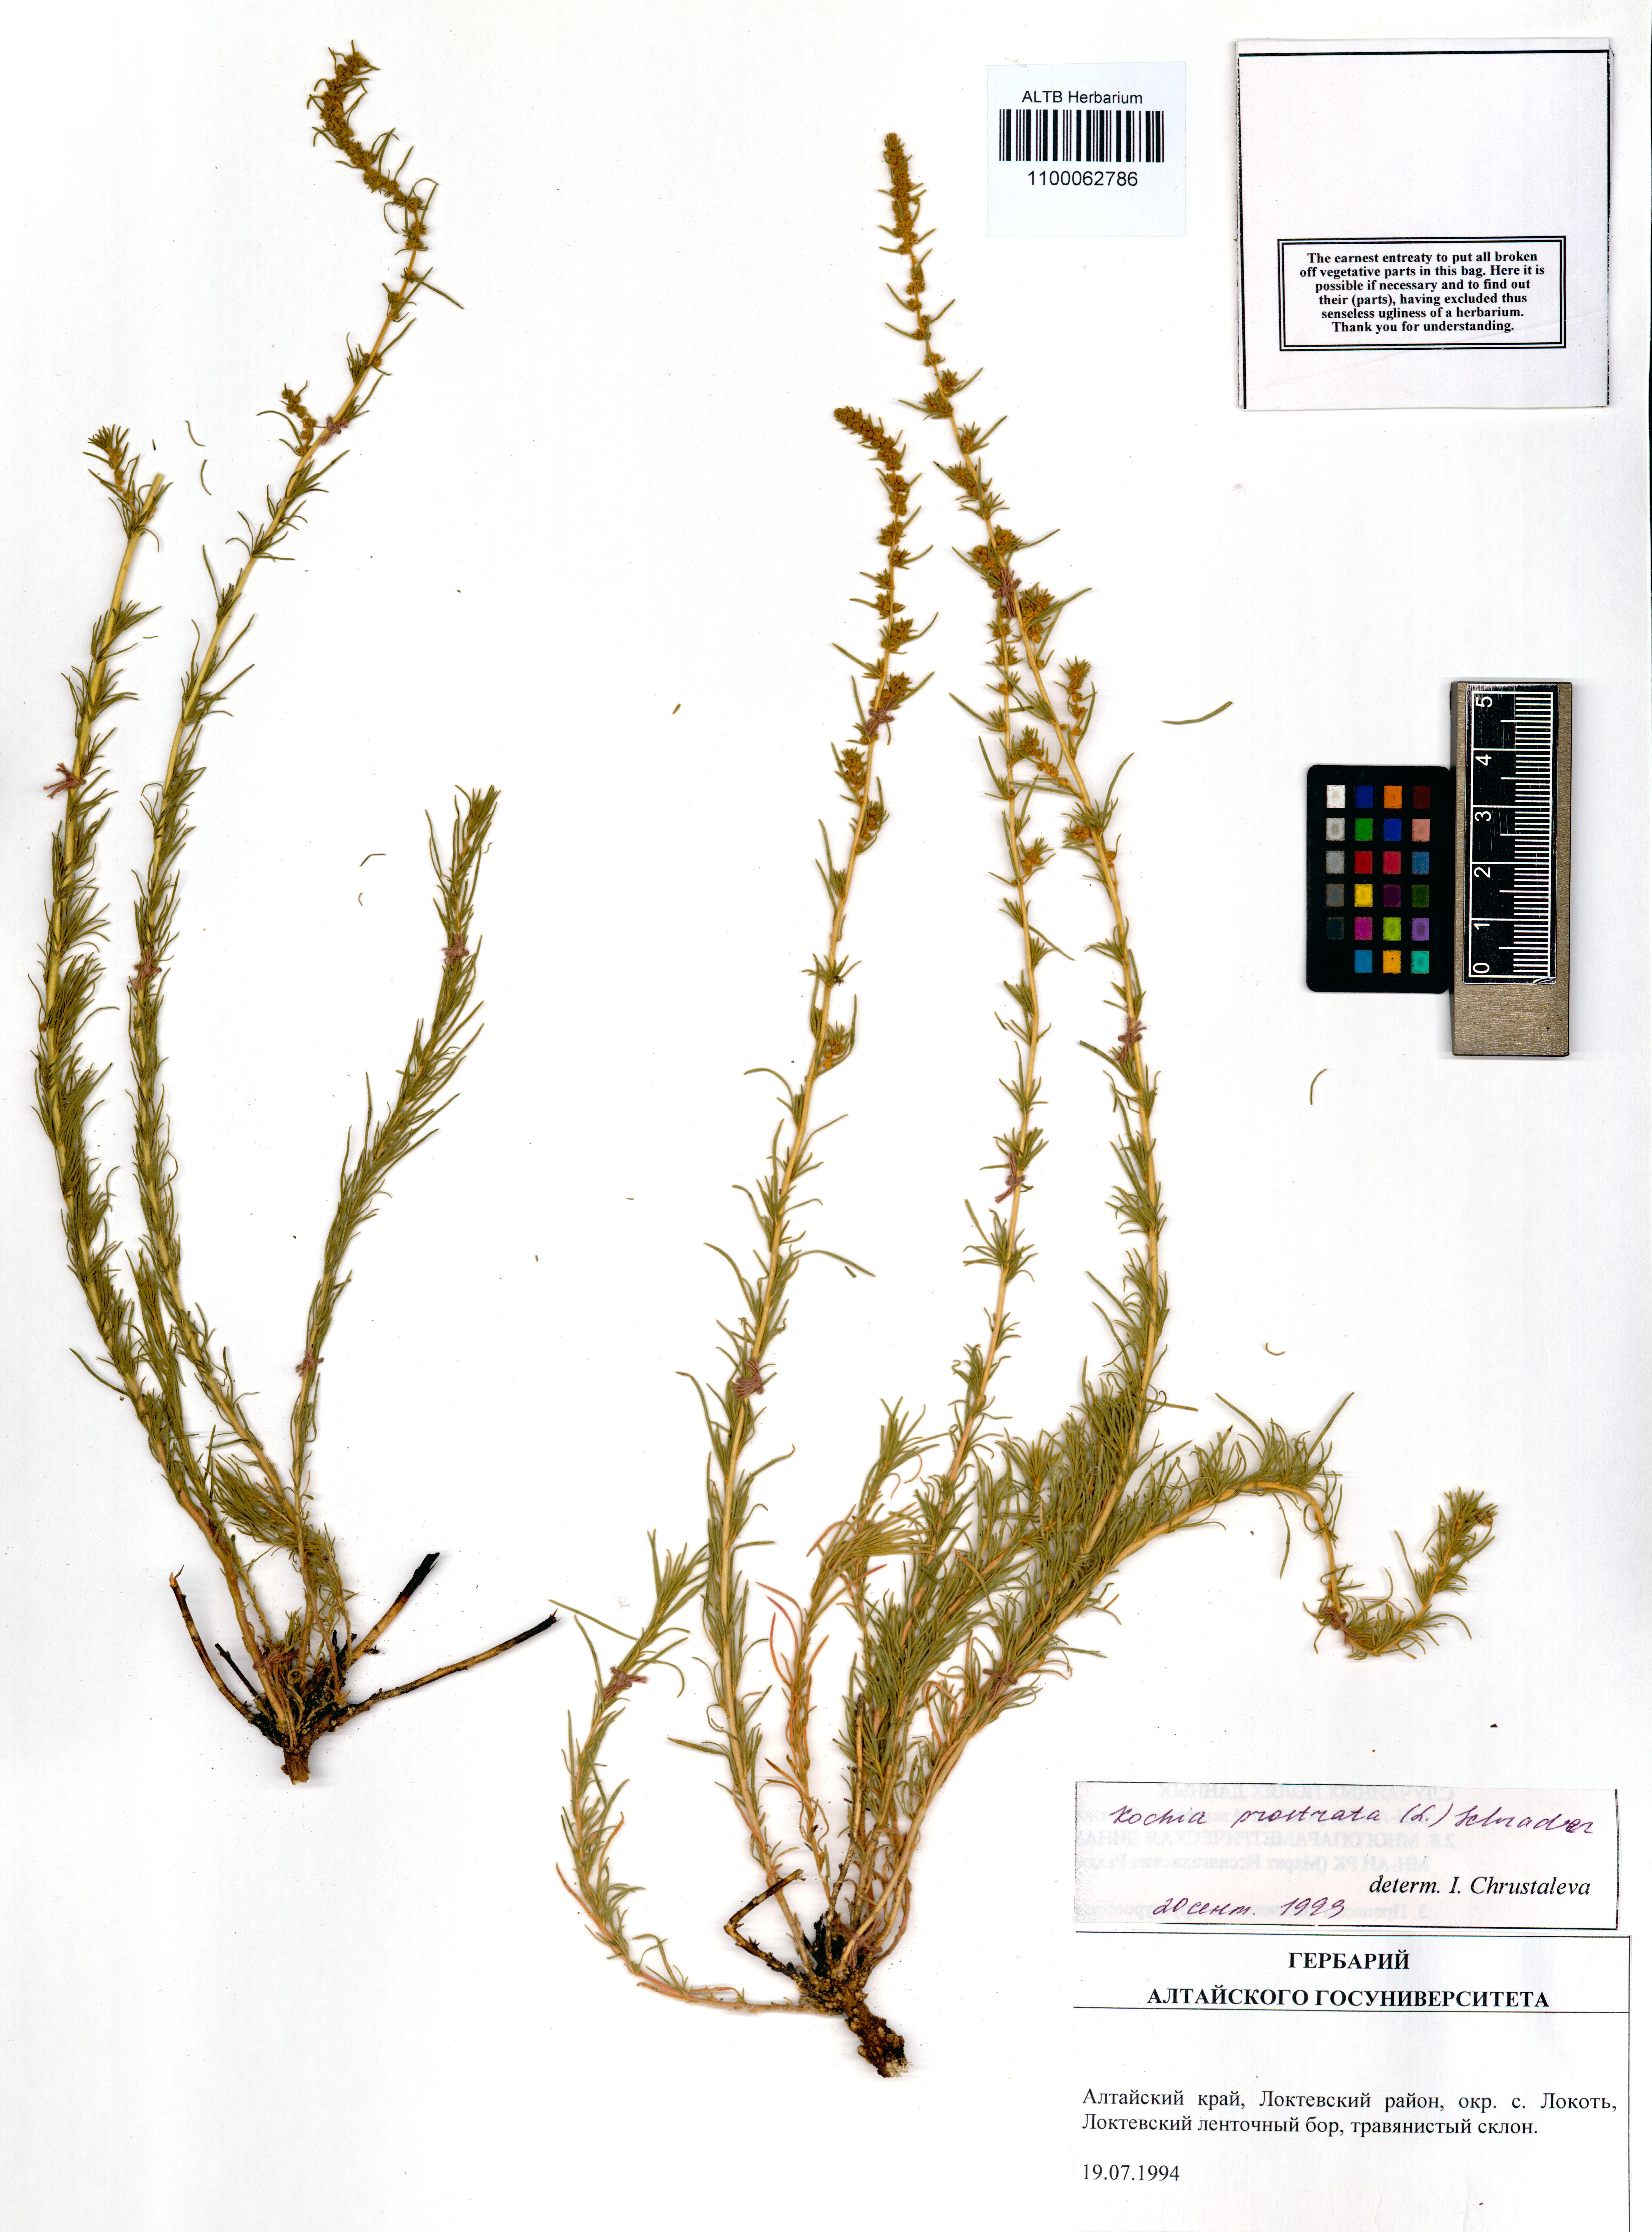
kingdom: Plantae
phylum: Tracheophyta
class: Magnoliopsida
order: Caryophyllales
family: Amaranthaceae
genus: Bassia
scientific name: Bassia prostrata
